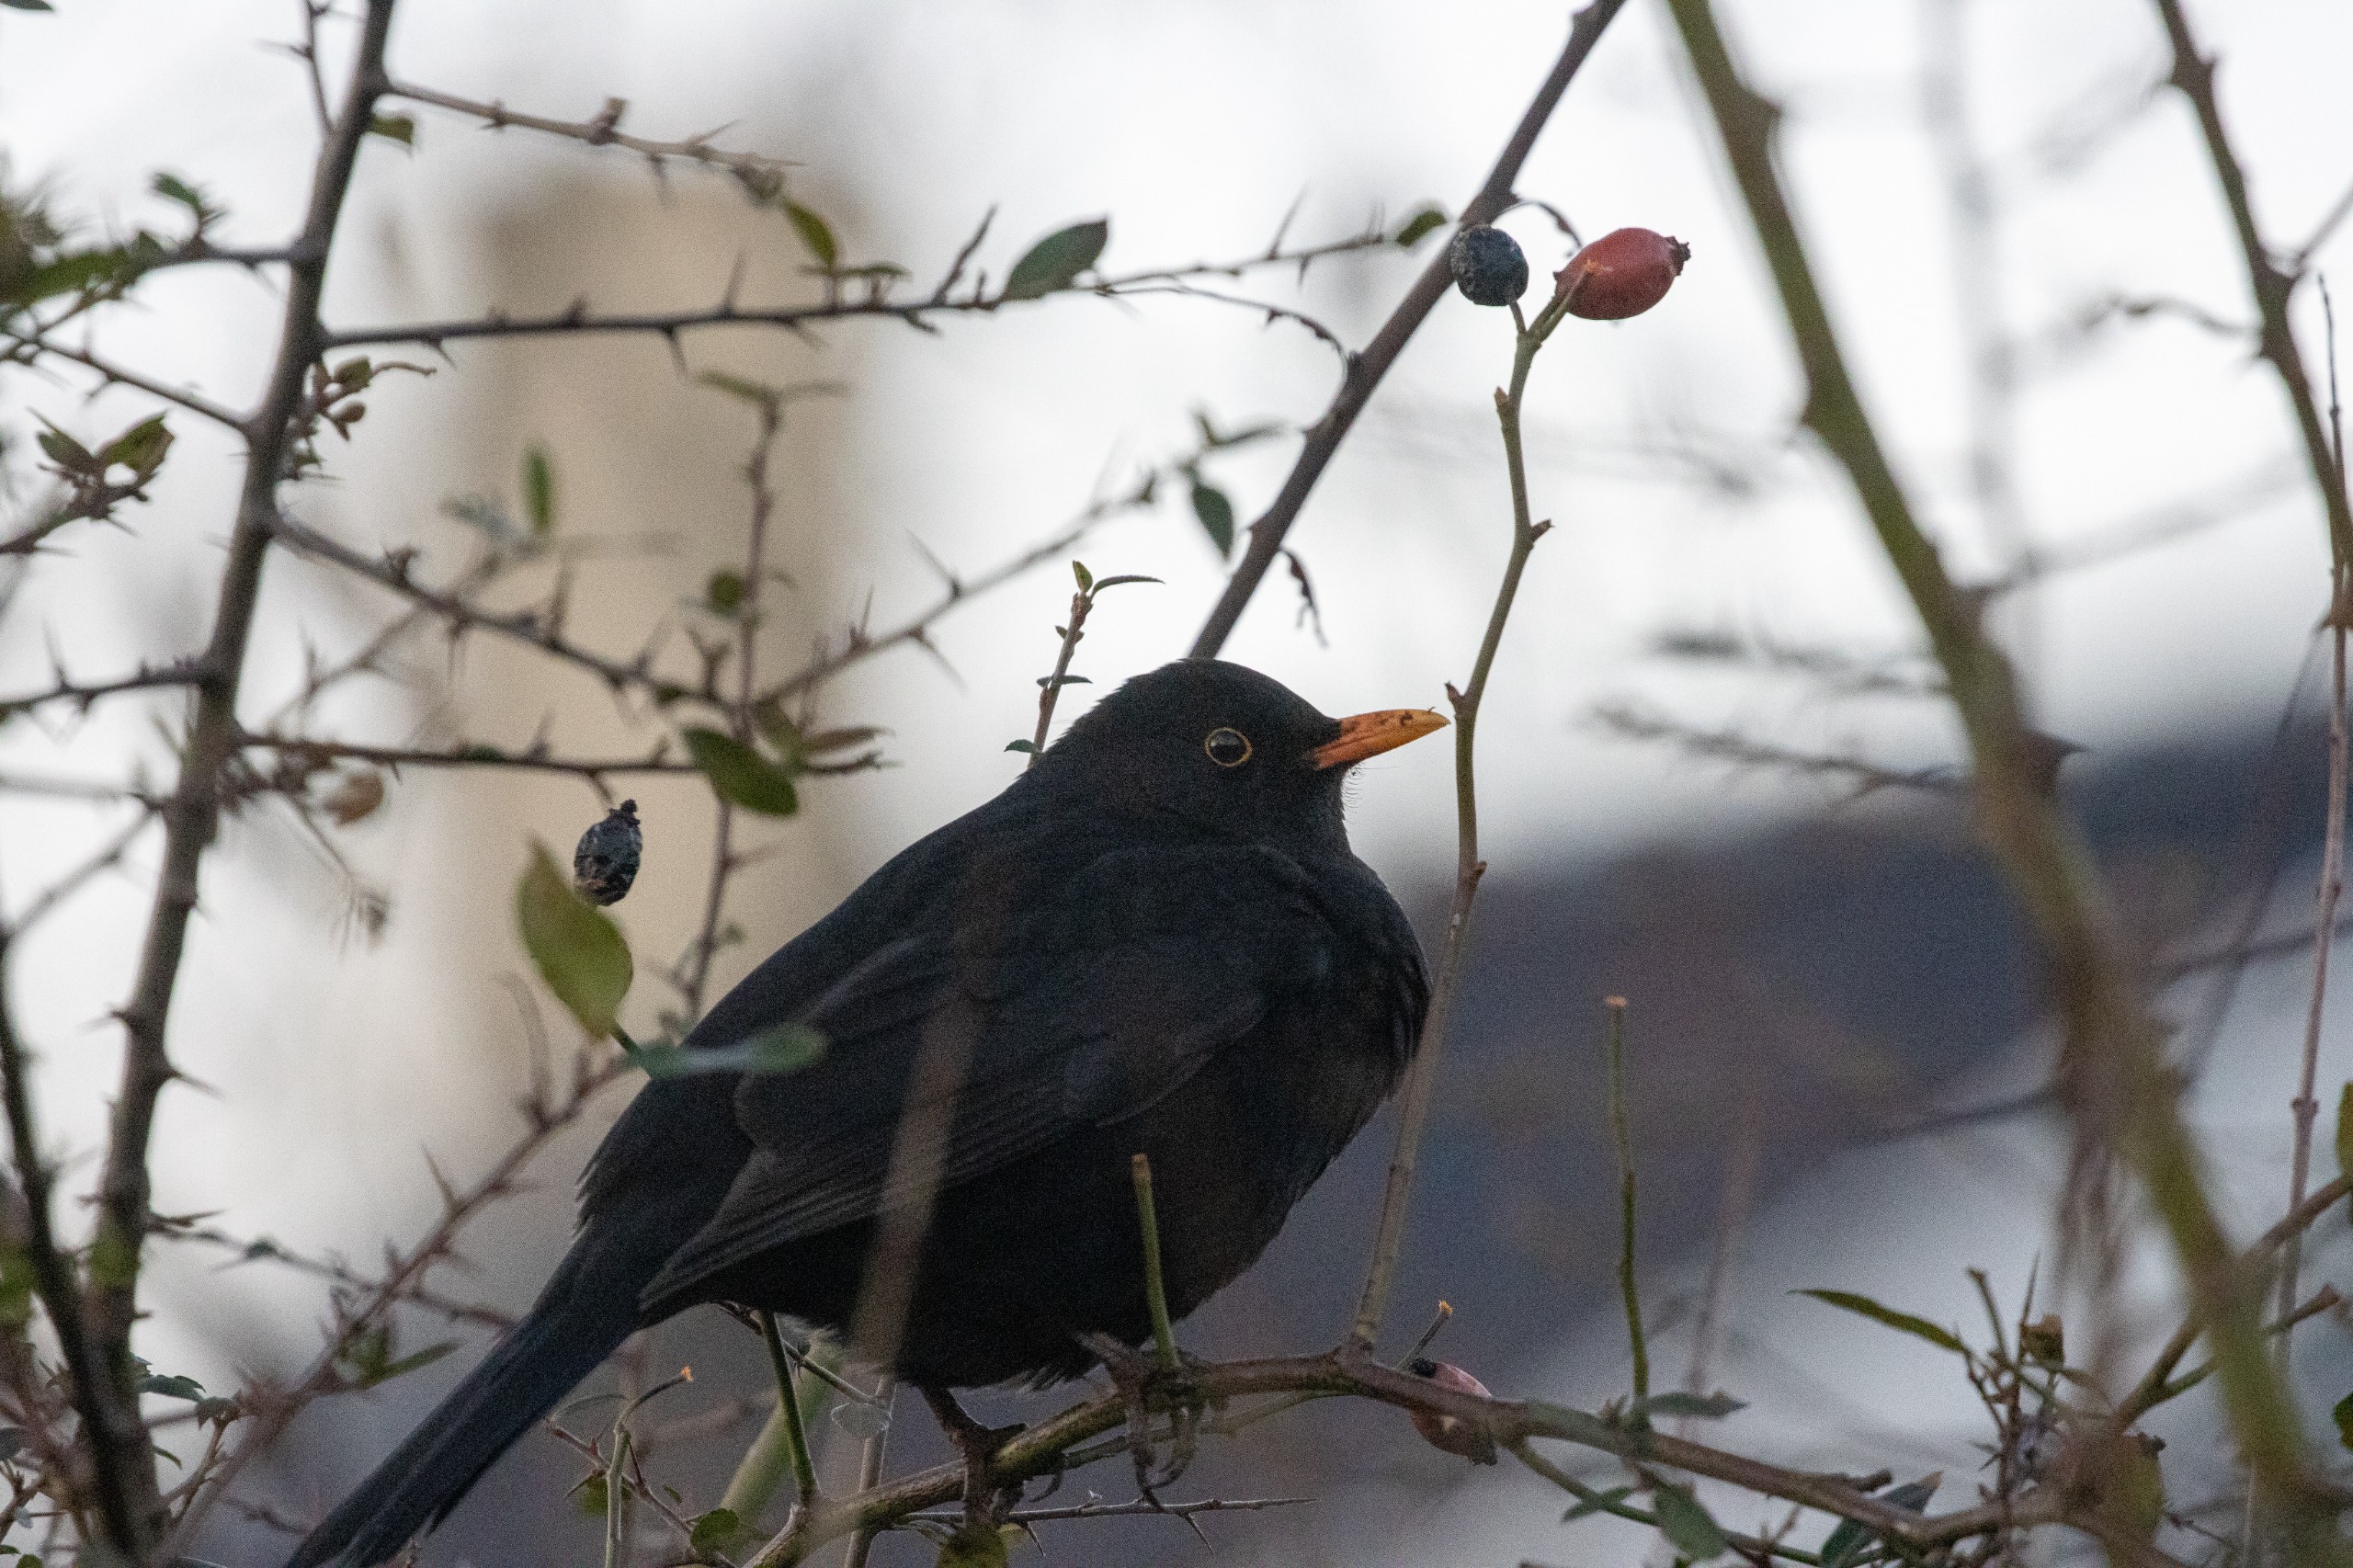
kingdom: Animalia
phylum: Chordata
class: Aves
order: Passeriformes
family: Turdidae
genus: Turdus
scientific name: Turdus merula
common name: Solsort
